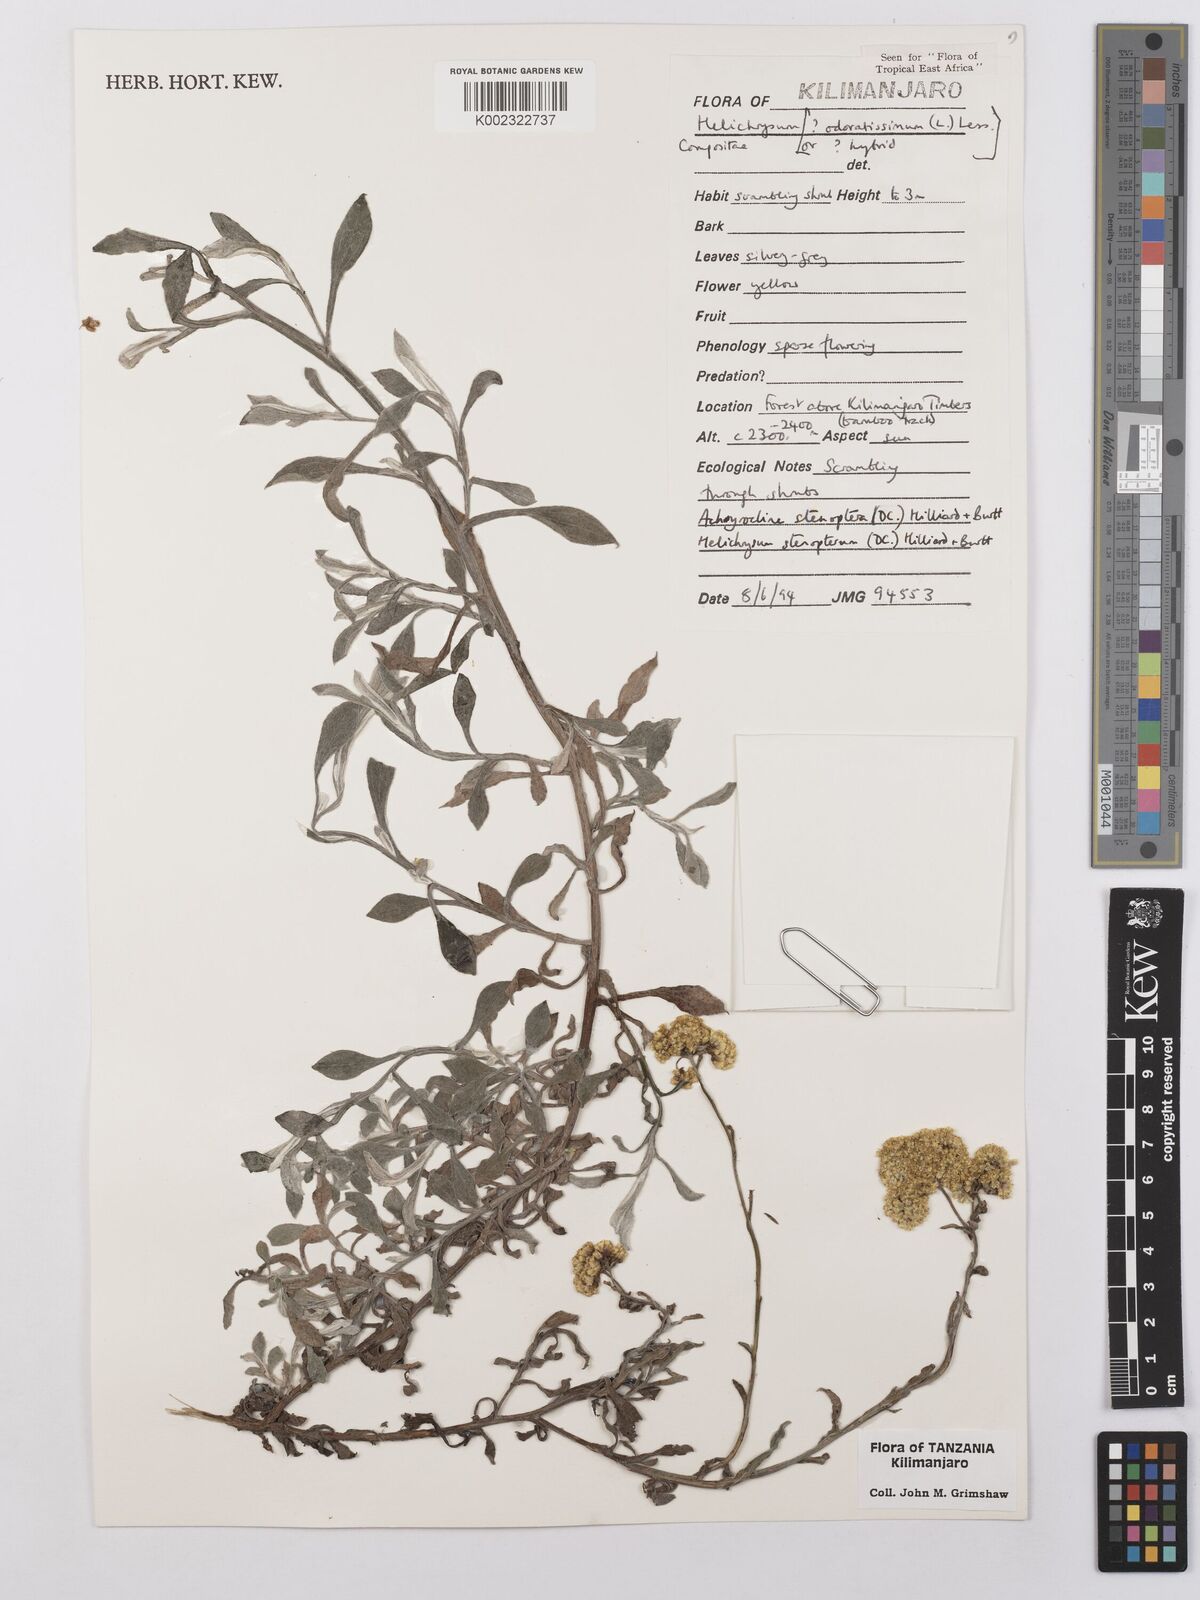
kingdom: Plantae
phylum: Tracheophyta
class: Magnoliopsida
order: Asterales
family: Asteraceae
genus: Helichrysum
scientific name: Helichrysum odoratissimum
